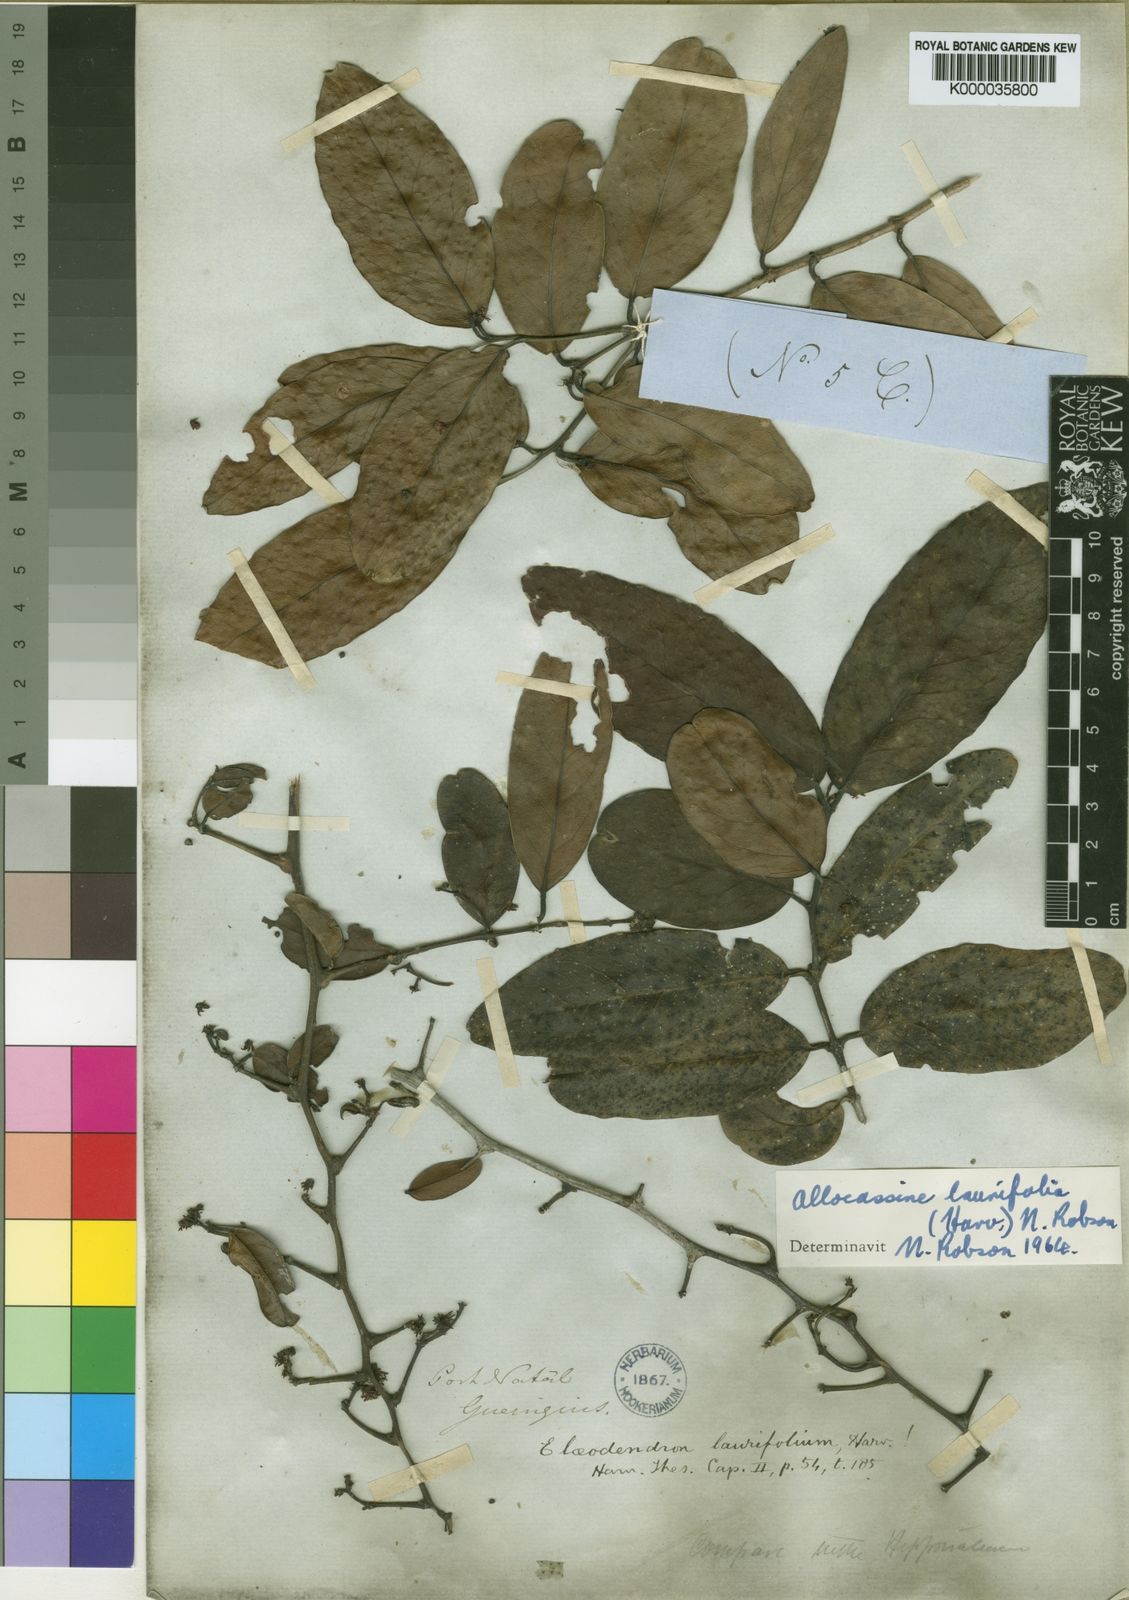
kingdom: Plantae
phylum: Tracheophyta
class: Magnoliopsida
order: Celastrales
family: Celastraceae
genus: Allocassine
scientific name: Allocassine
